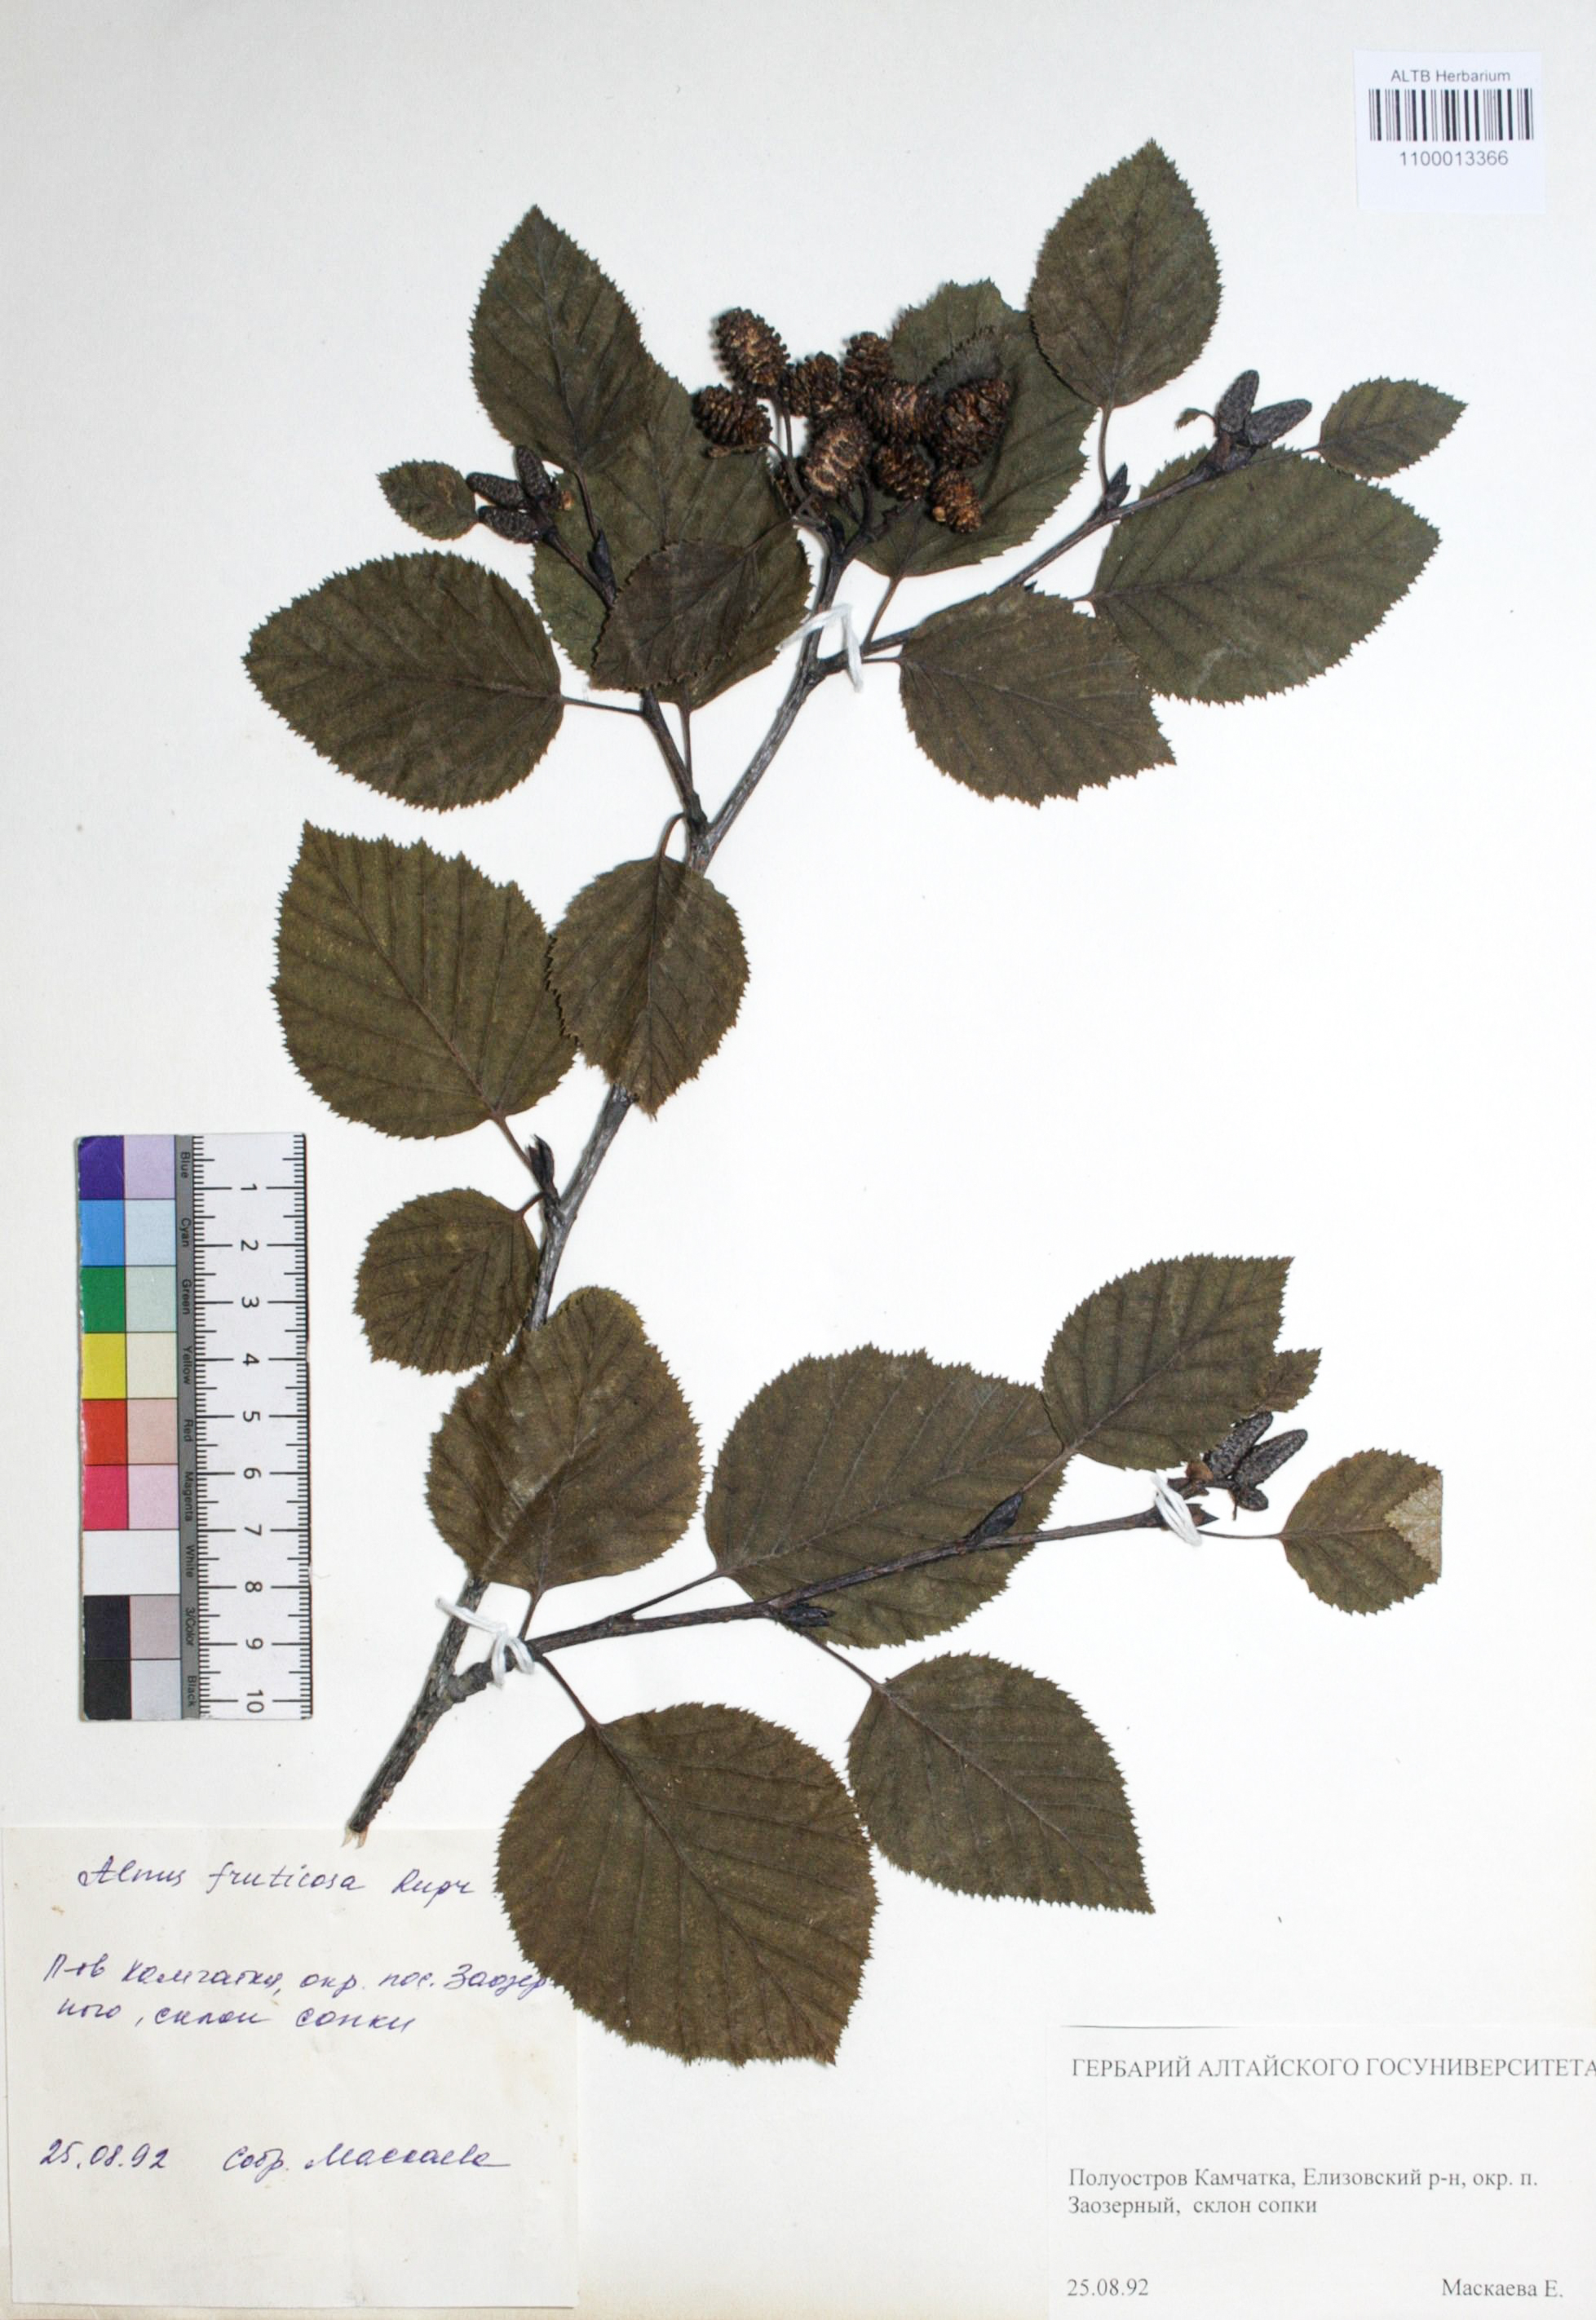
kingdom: Plantae
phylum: Tracheophyta
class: Magnoliopsida
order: Fagales
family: Betulaceae
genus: Alnus
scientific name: Alnus alnobetula
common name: Green alder
